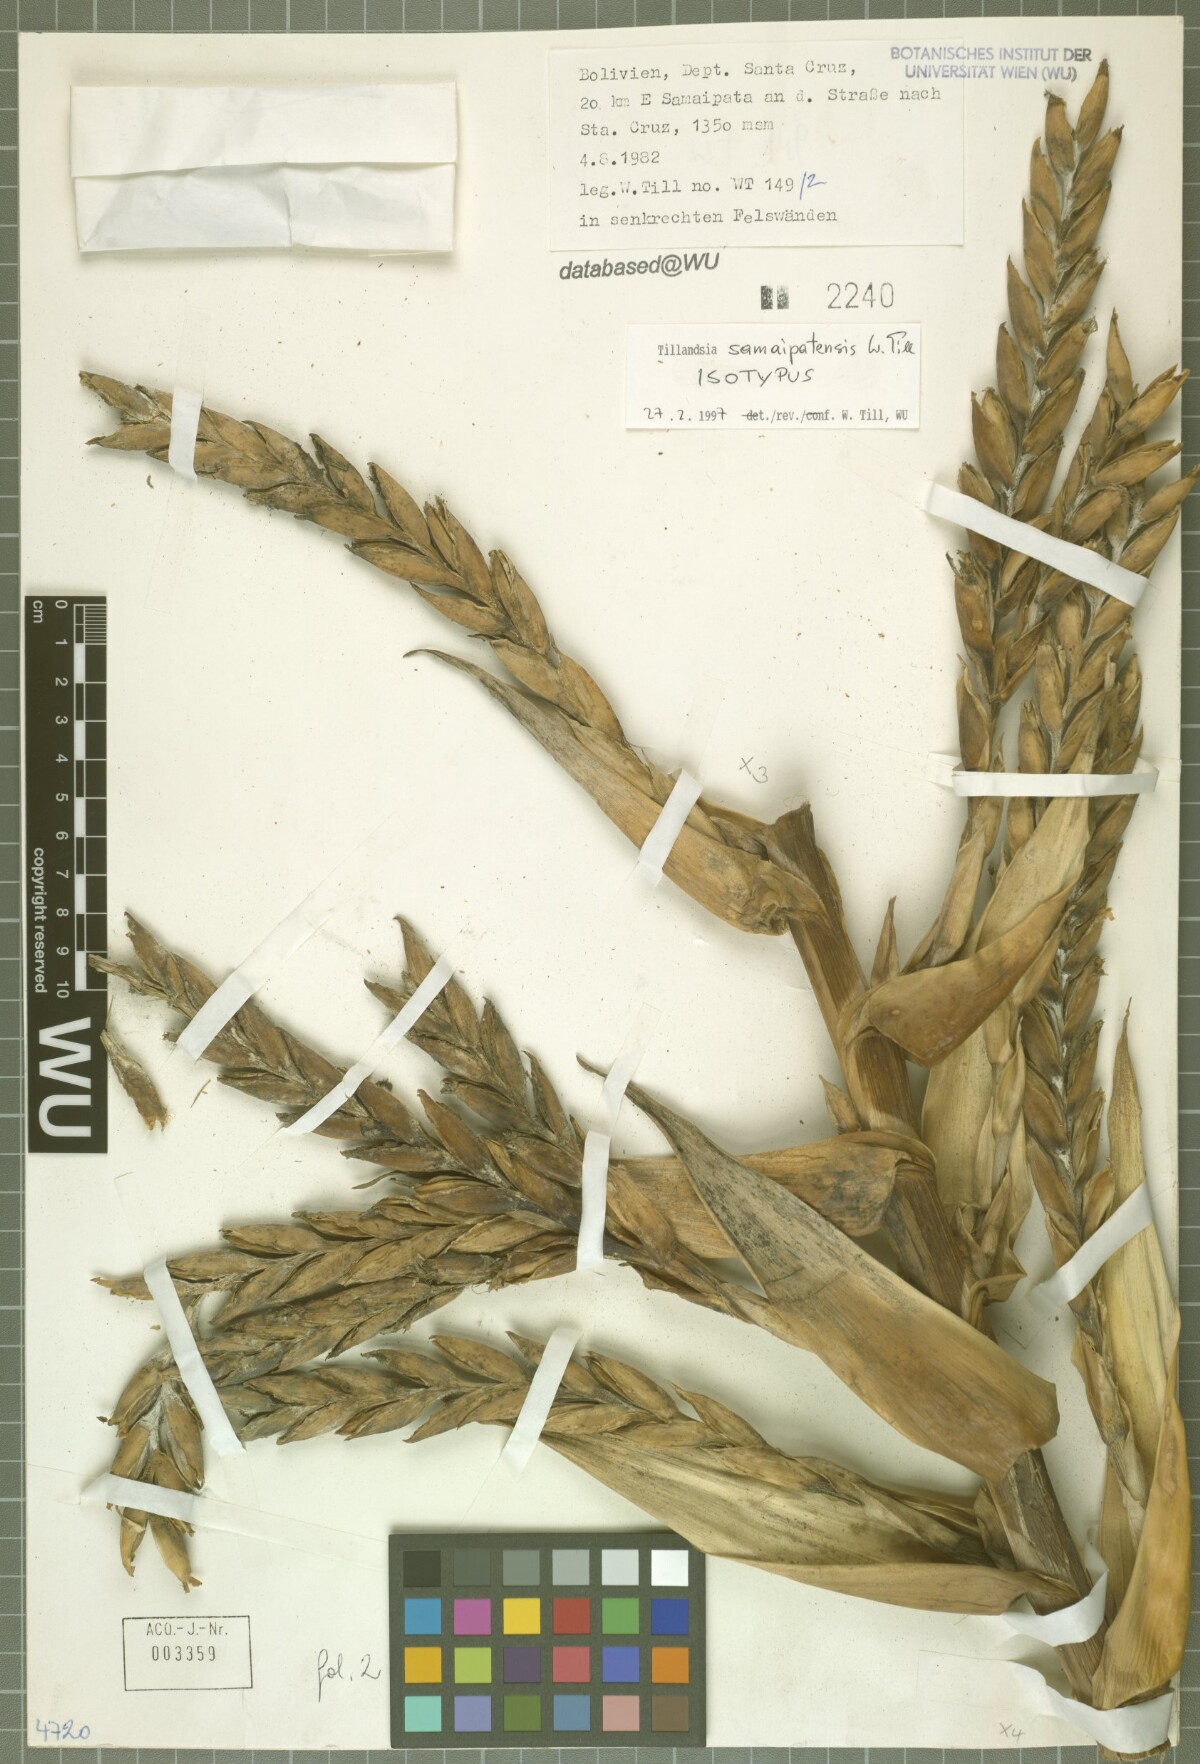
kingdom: Plantae
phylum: Tracheophyta
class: Liliopsida
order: Poales
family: Bromeliaceae
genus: Tillandsia
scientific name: Tillandsia samaipatensis
